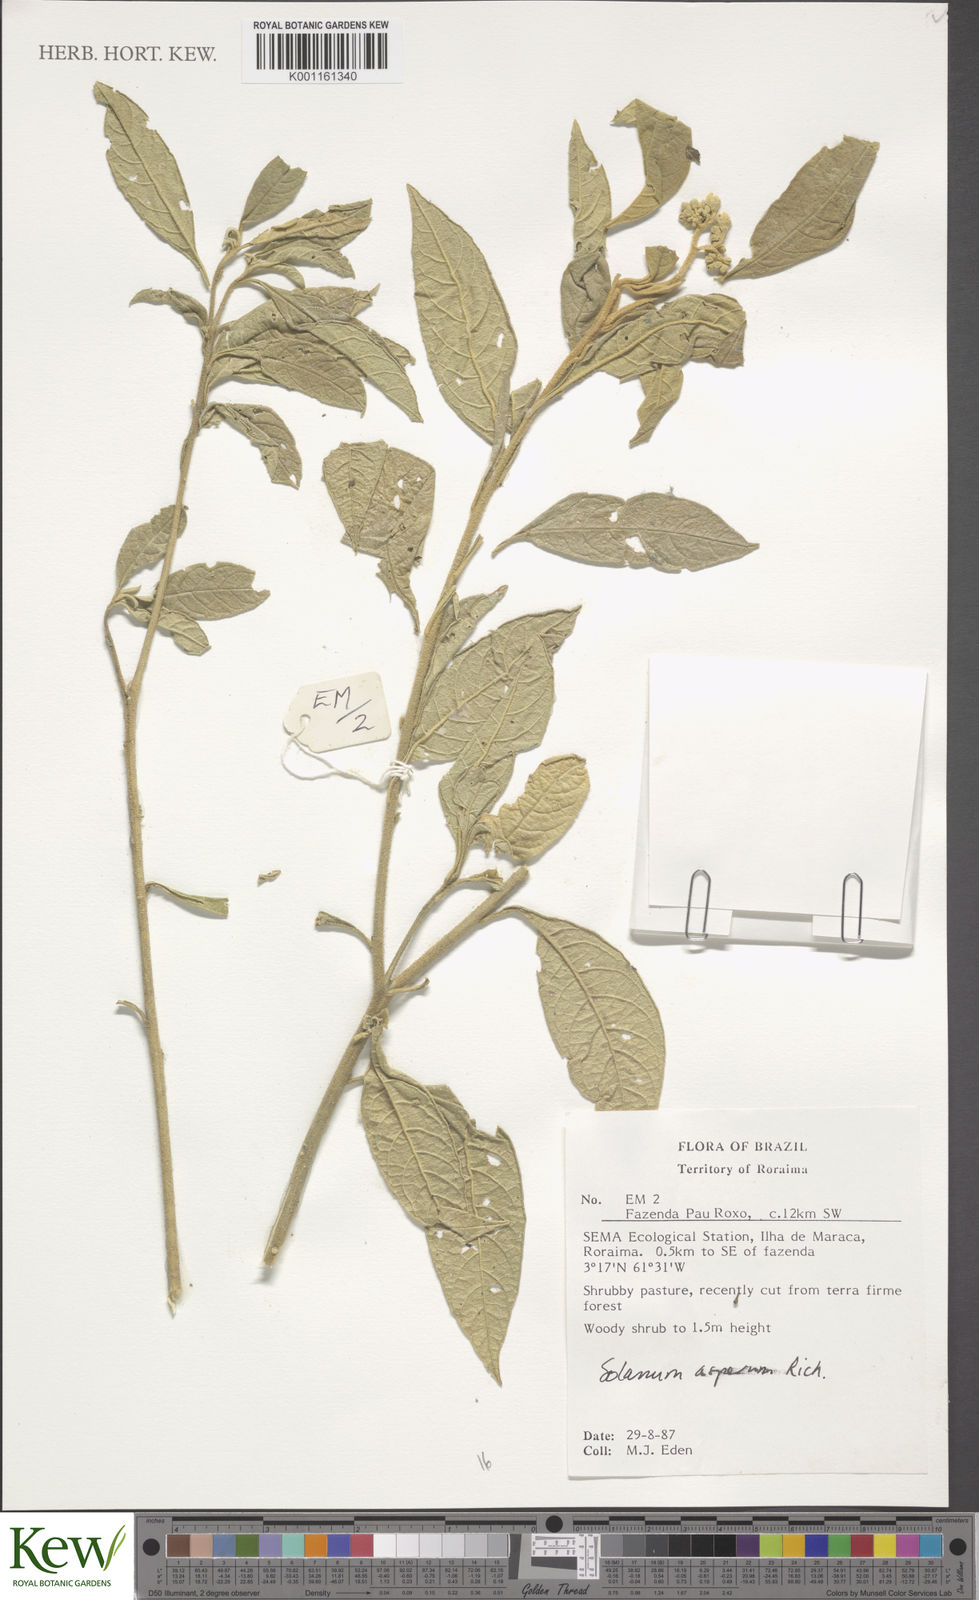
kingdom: Plantae
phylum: Tracheophyta
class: Magnoliopsida
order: Solanales
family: Solanaceae
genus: Solanum
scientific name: Solanum asperum
